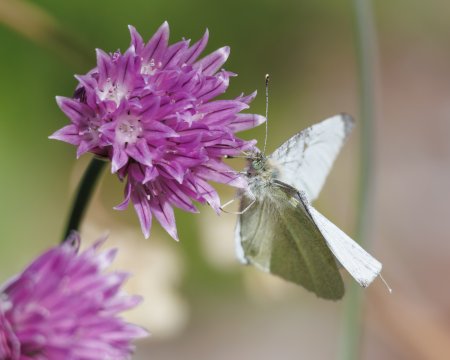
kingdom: Animalia
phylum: Arthropoda
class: Insecta
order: Lepidoptera
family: Pieridae
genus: Pieris
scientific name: Pieris rapae
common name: Cabbage White
